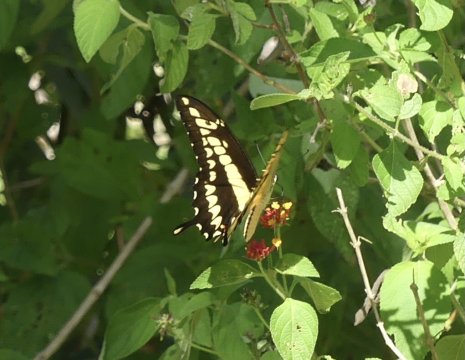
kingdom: Animalia
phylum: Arthropoda
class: Insecta
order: Lepidoptera
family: Papilionidae
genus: Papilio
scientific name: Papilio thoas
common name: Thoas Swallowtail
